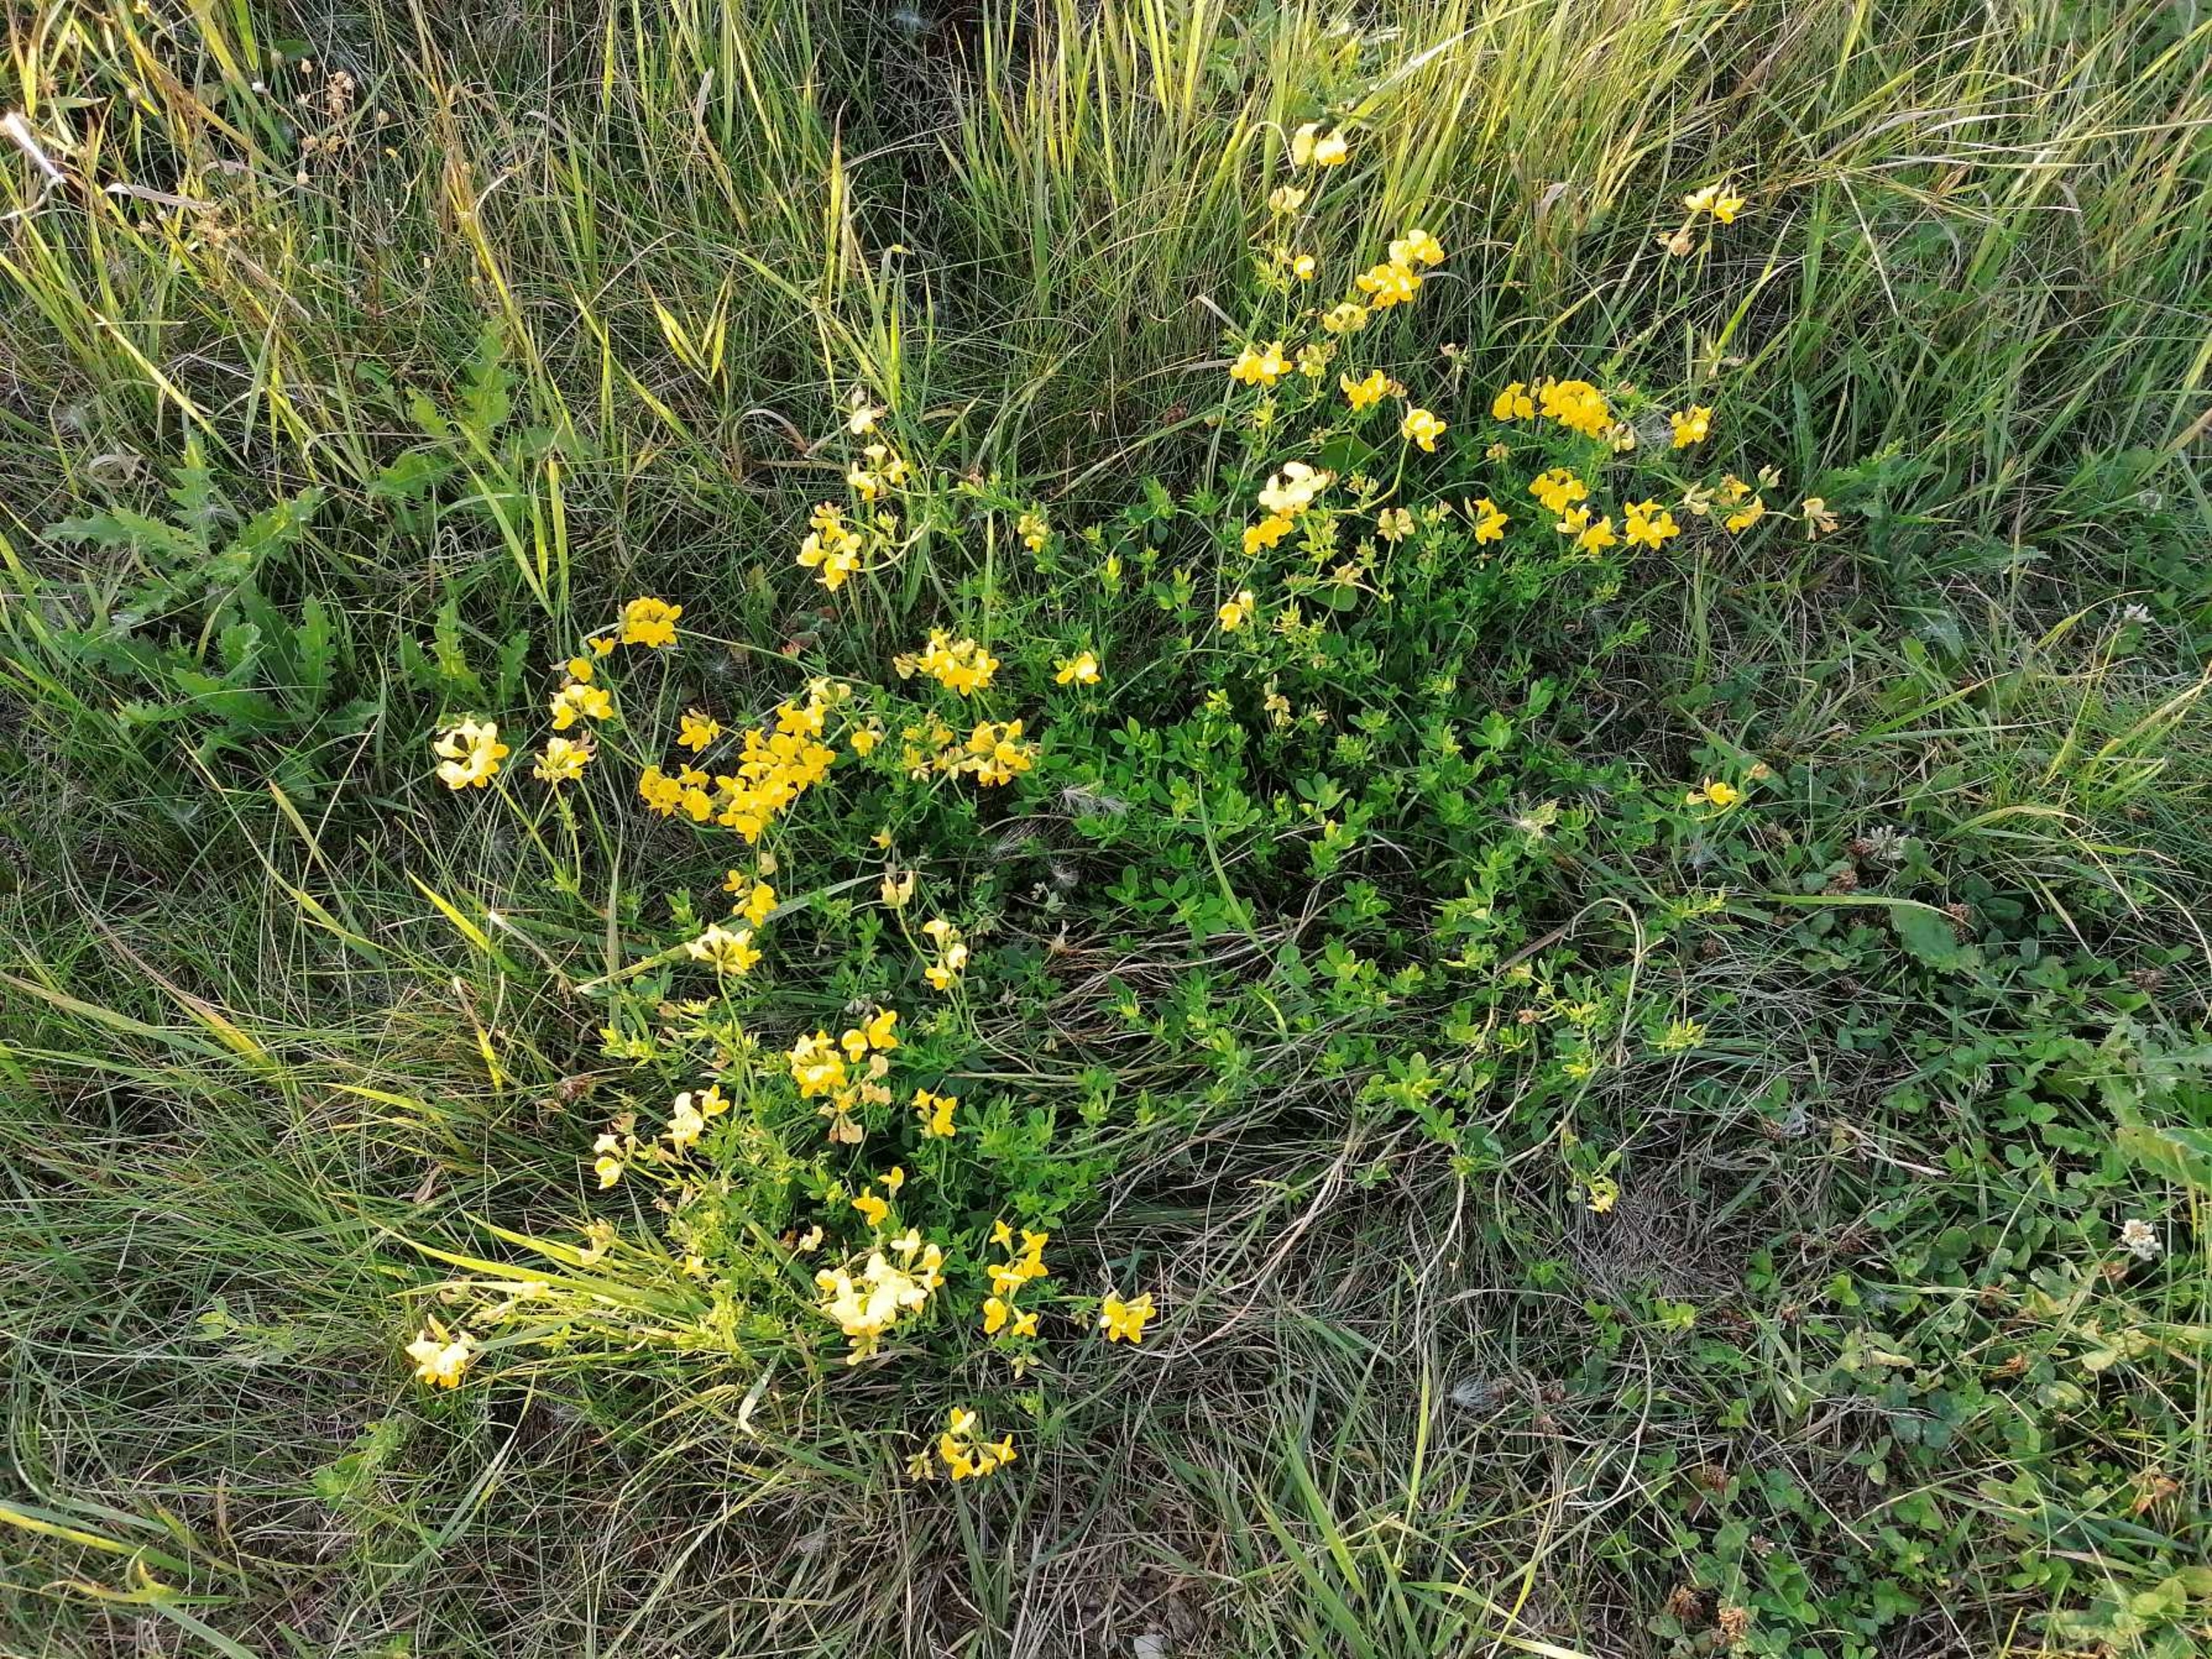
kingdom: Plantae
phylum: Tracheophyta
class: Magnoliopsida
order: Fabales
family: Fabaceae
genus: Lotus
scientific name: Lotus corniculatus
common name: Almindelig kællingetand
